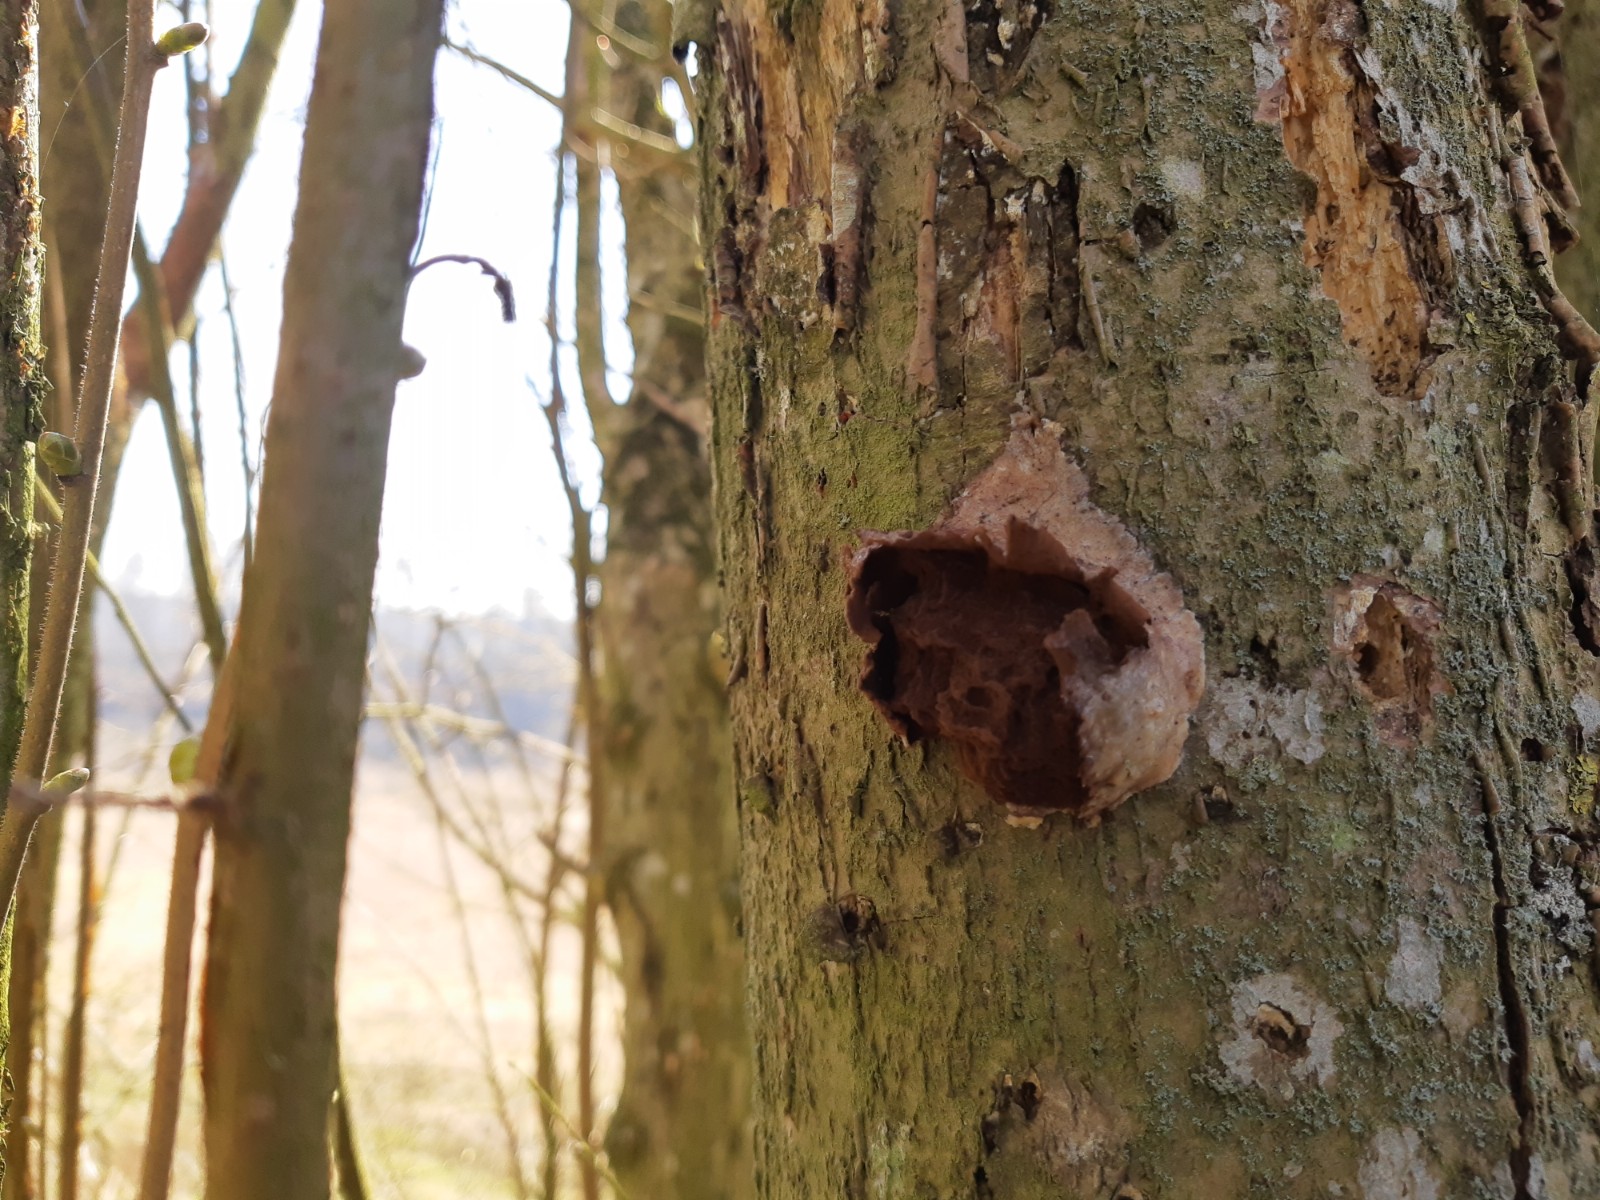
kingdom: Protozoa
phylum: Mycetozoa
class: Myxomycetes
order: Cribrariales
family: Tubiferaceae
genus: Reticularia
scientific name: Reticularia lycoperdon
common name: skinnende støvpude
